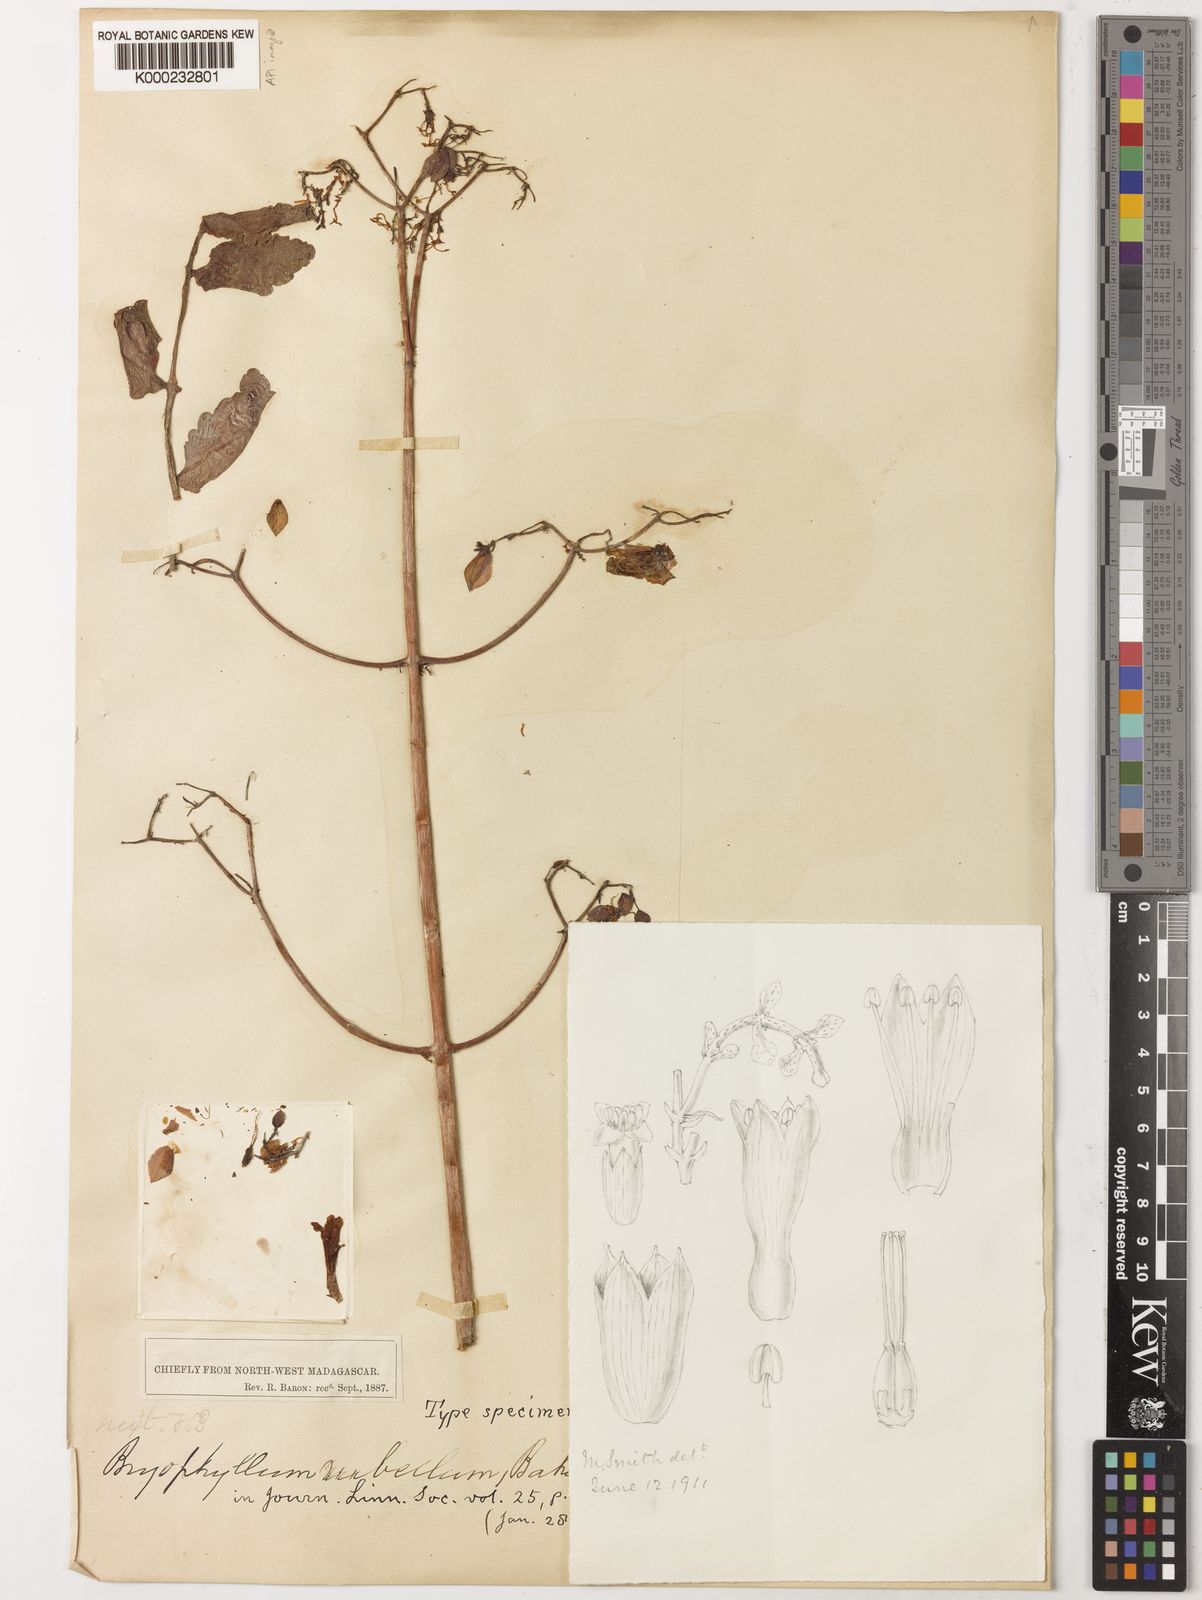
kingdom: Plantae
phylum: Tracheophyta
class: Magnoliopsida
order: Saxifragales
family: Crassulaceae
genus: Kalanchoe
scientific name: Kalanchoe rubella
